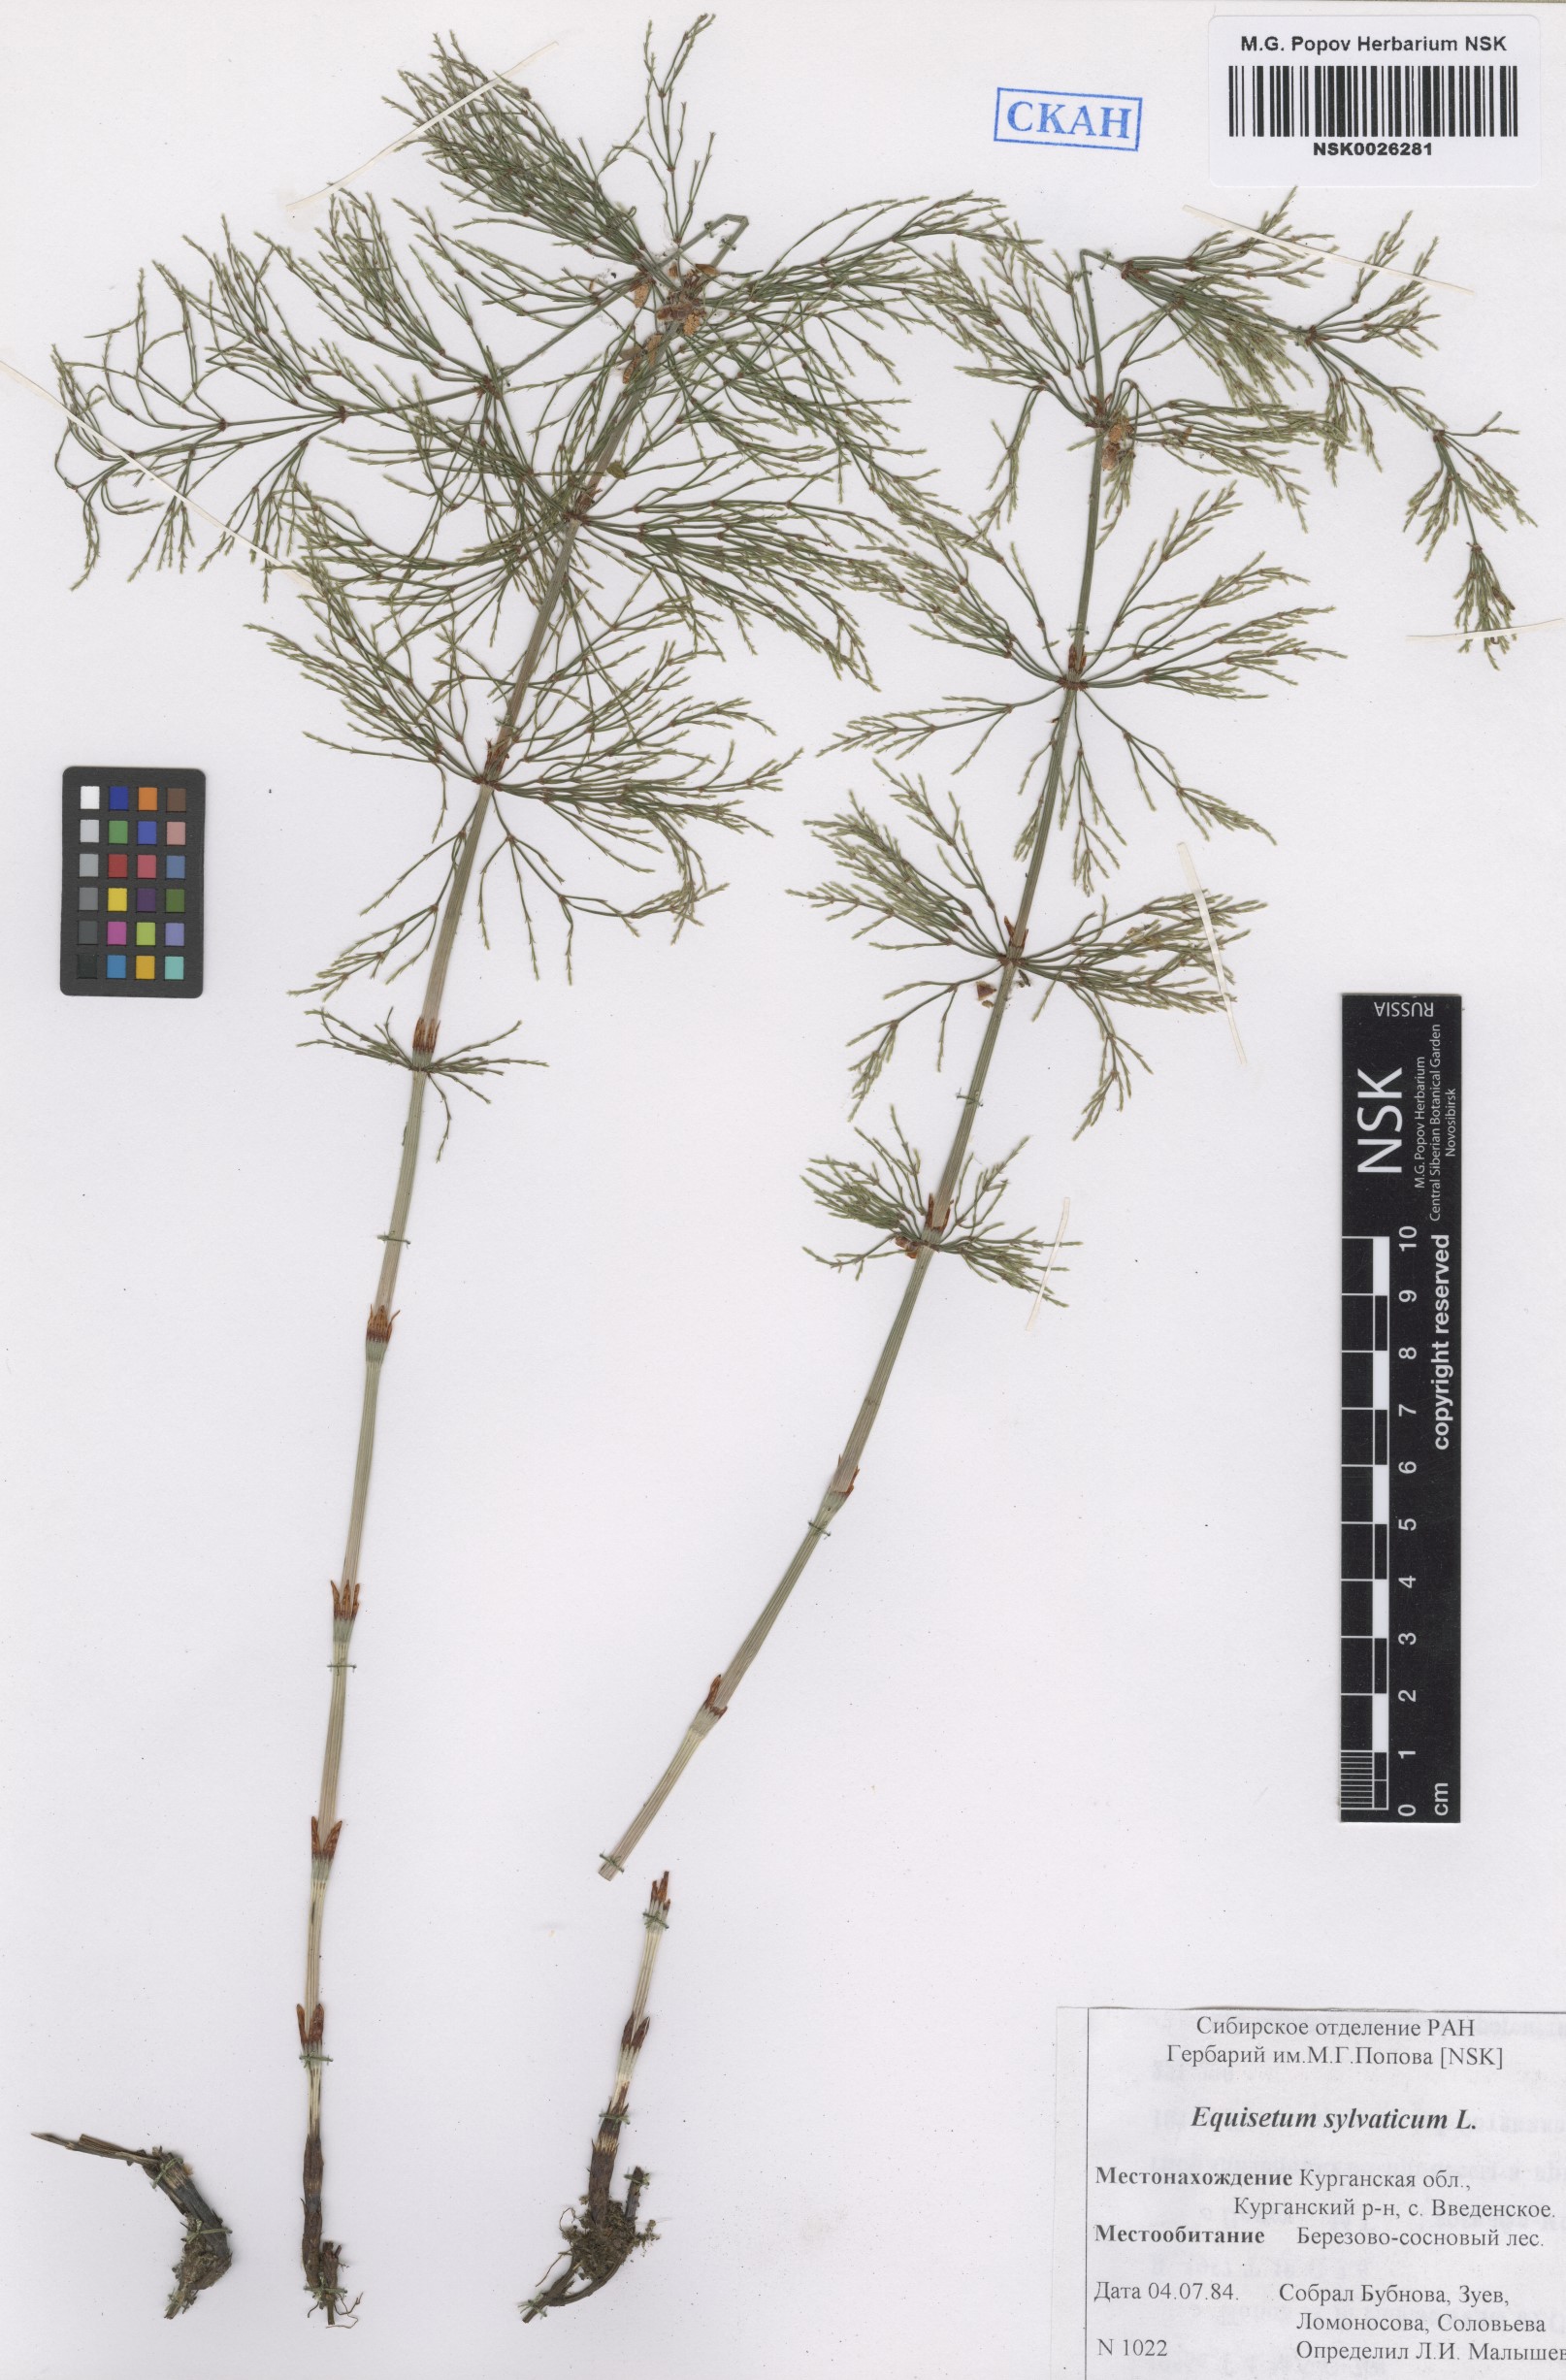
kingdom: Plantae
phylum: Tracheophyta
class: Polypodiopsida
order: Equisetales
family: Equisetaceae
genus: Equisetum
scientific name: Equisetum sylvaticum
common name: Wood horsetail
